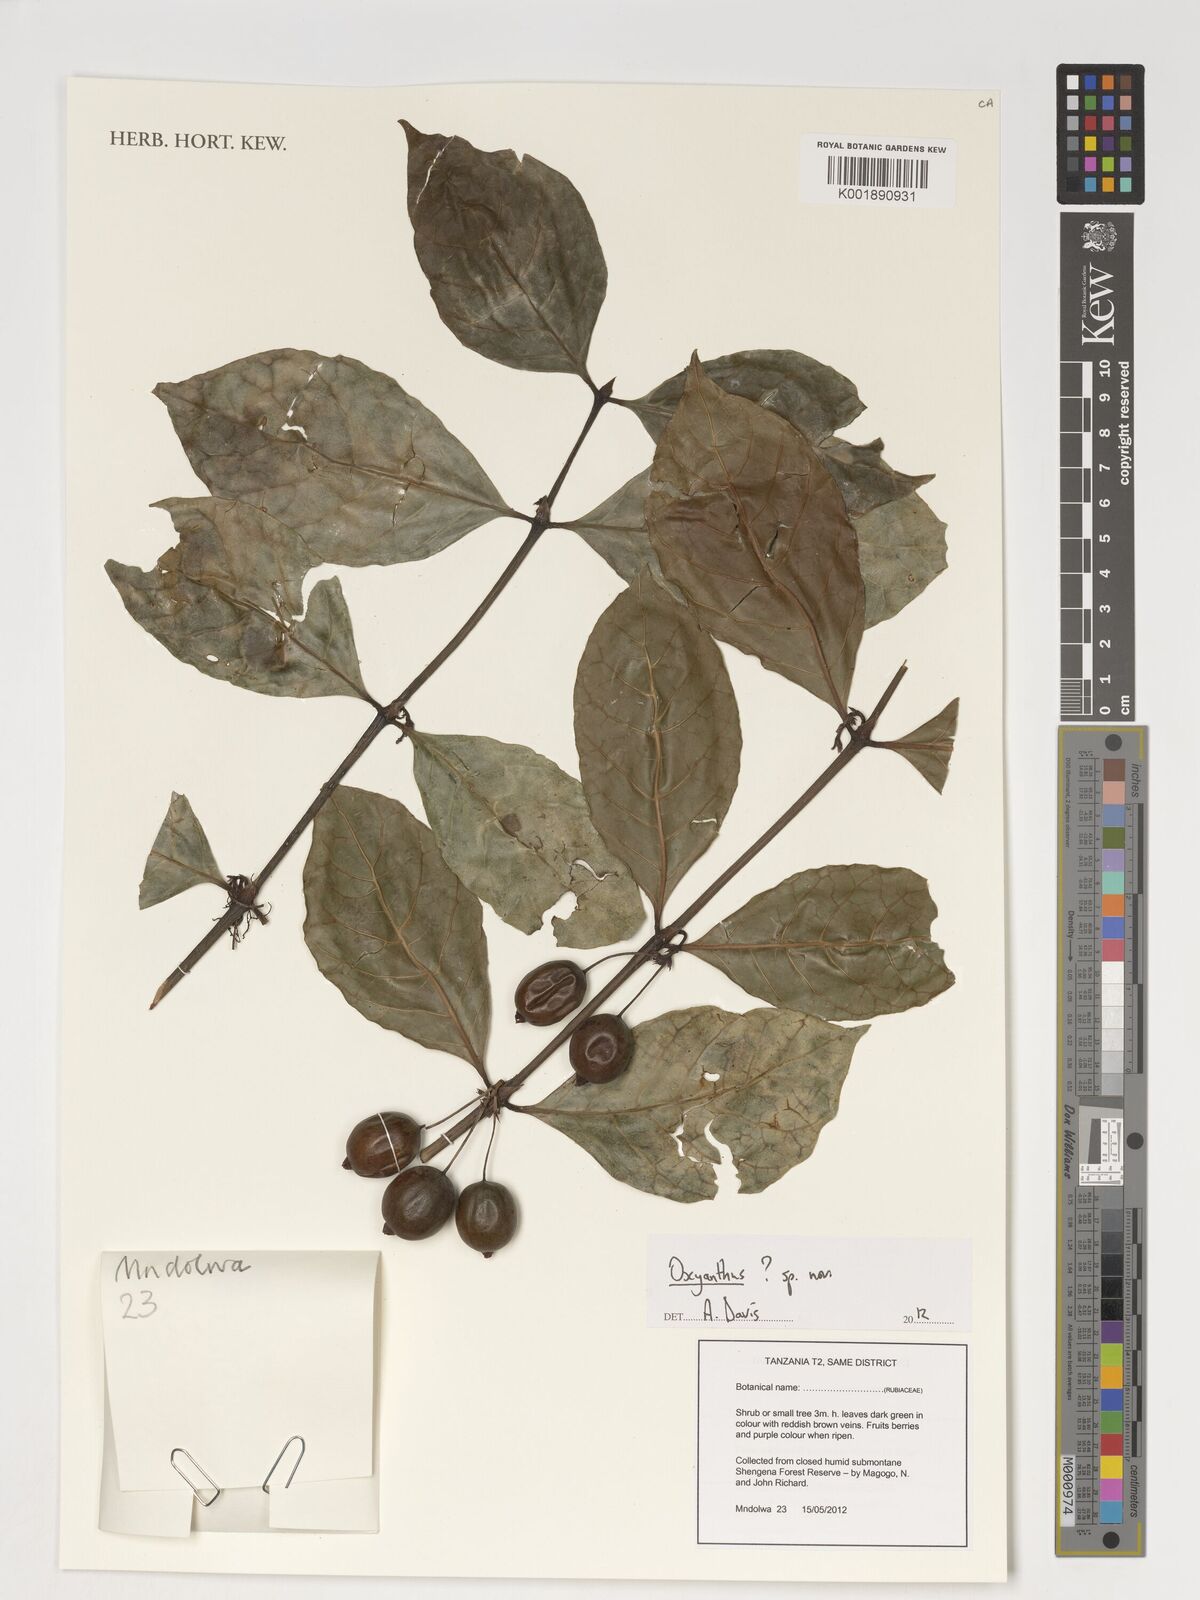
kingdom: Plantae
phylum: Tracheophyta
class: Magnoliopsida
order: Gentianales
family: Rubiaceae
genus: Oxyanthus
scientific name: Oxyanthus
